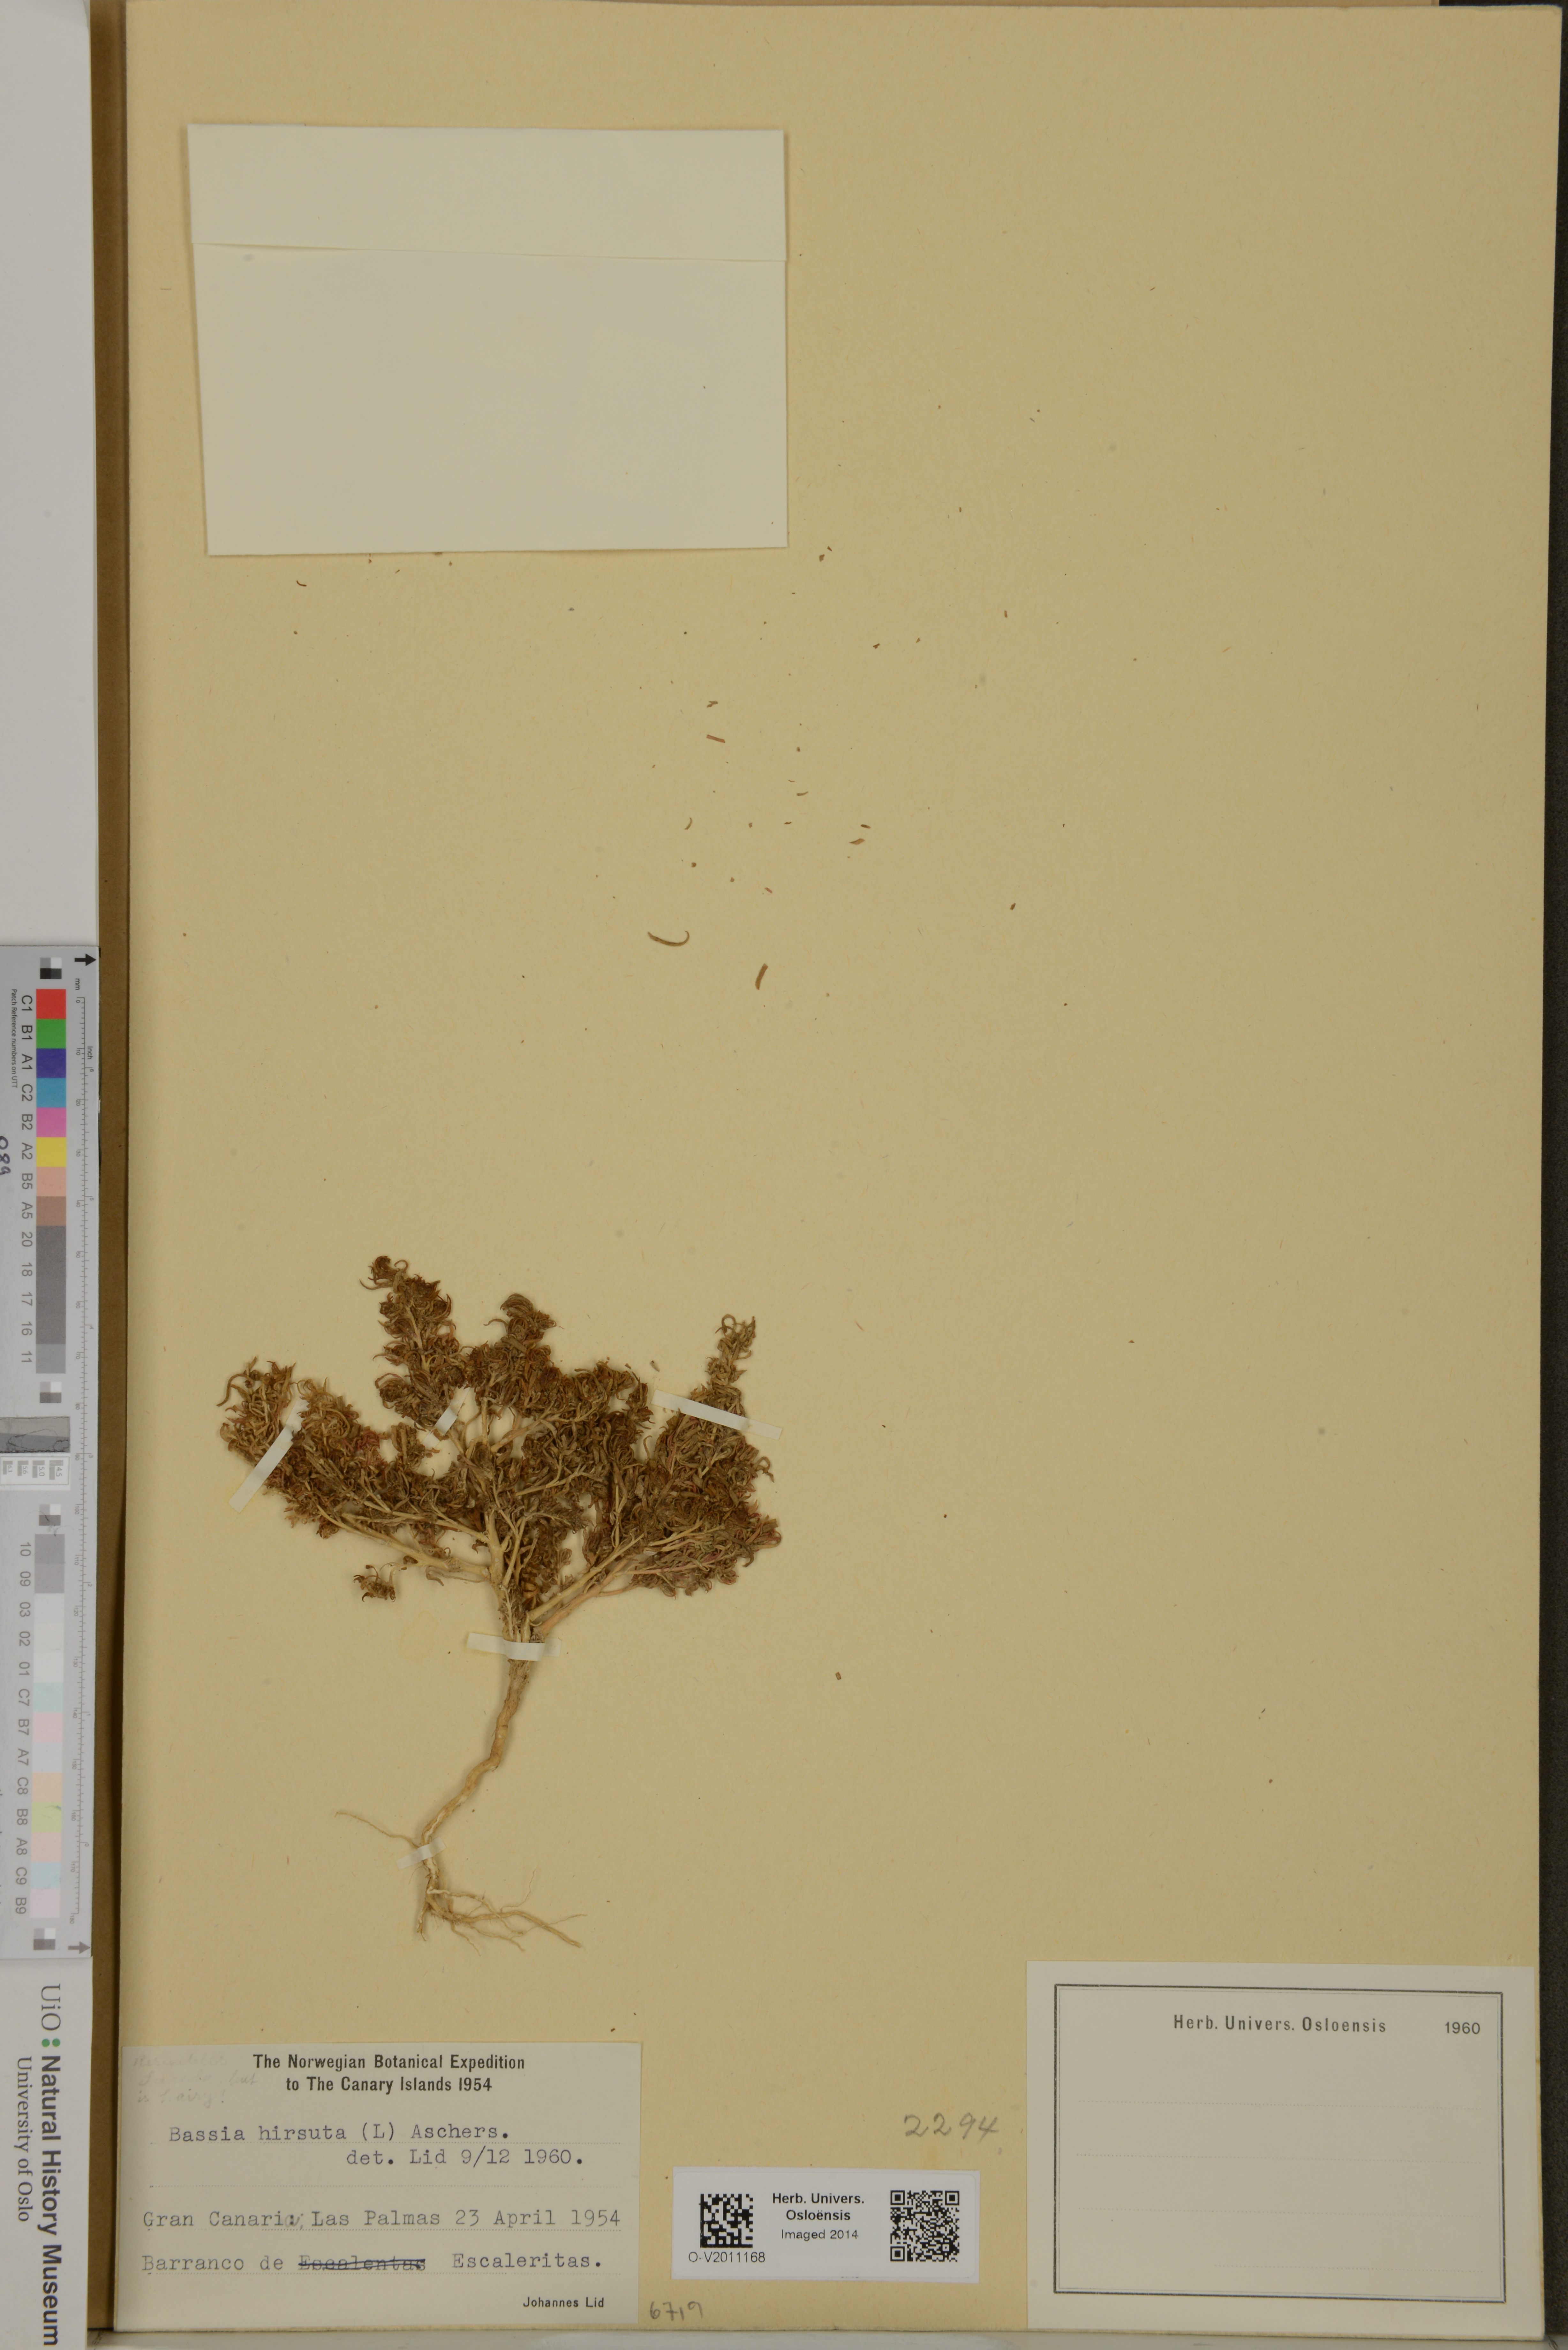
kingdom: Plantae
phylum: Tracheophyta
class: Magnoliopsida
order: Caryophyllales
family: Amaranthaceae
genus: Spirobassia
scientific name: Spirobassia hirsuta
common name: Hairy smotherweed
